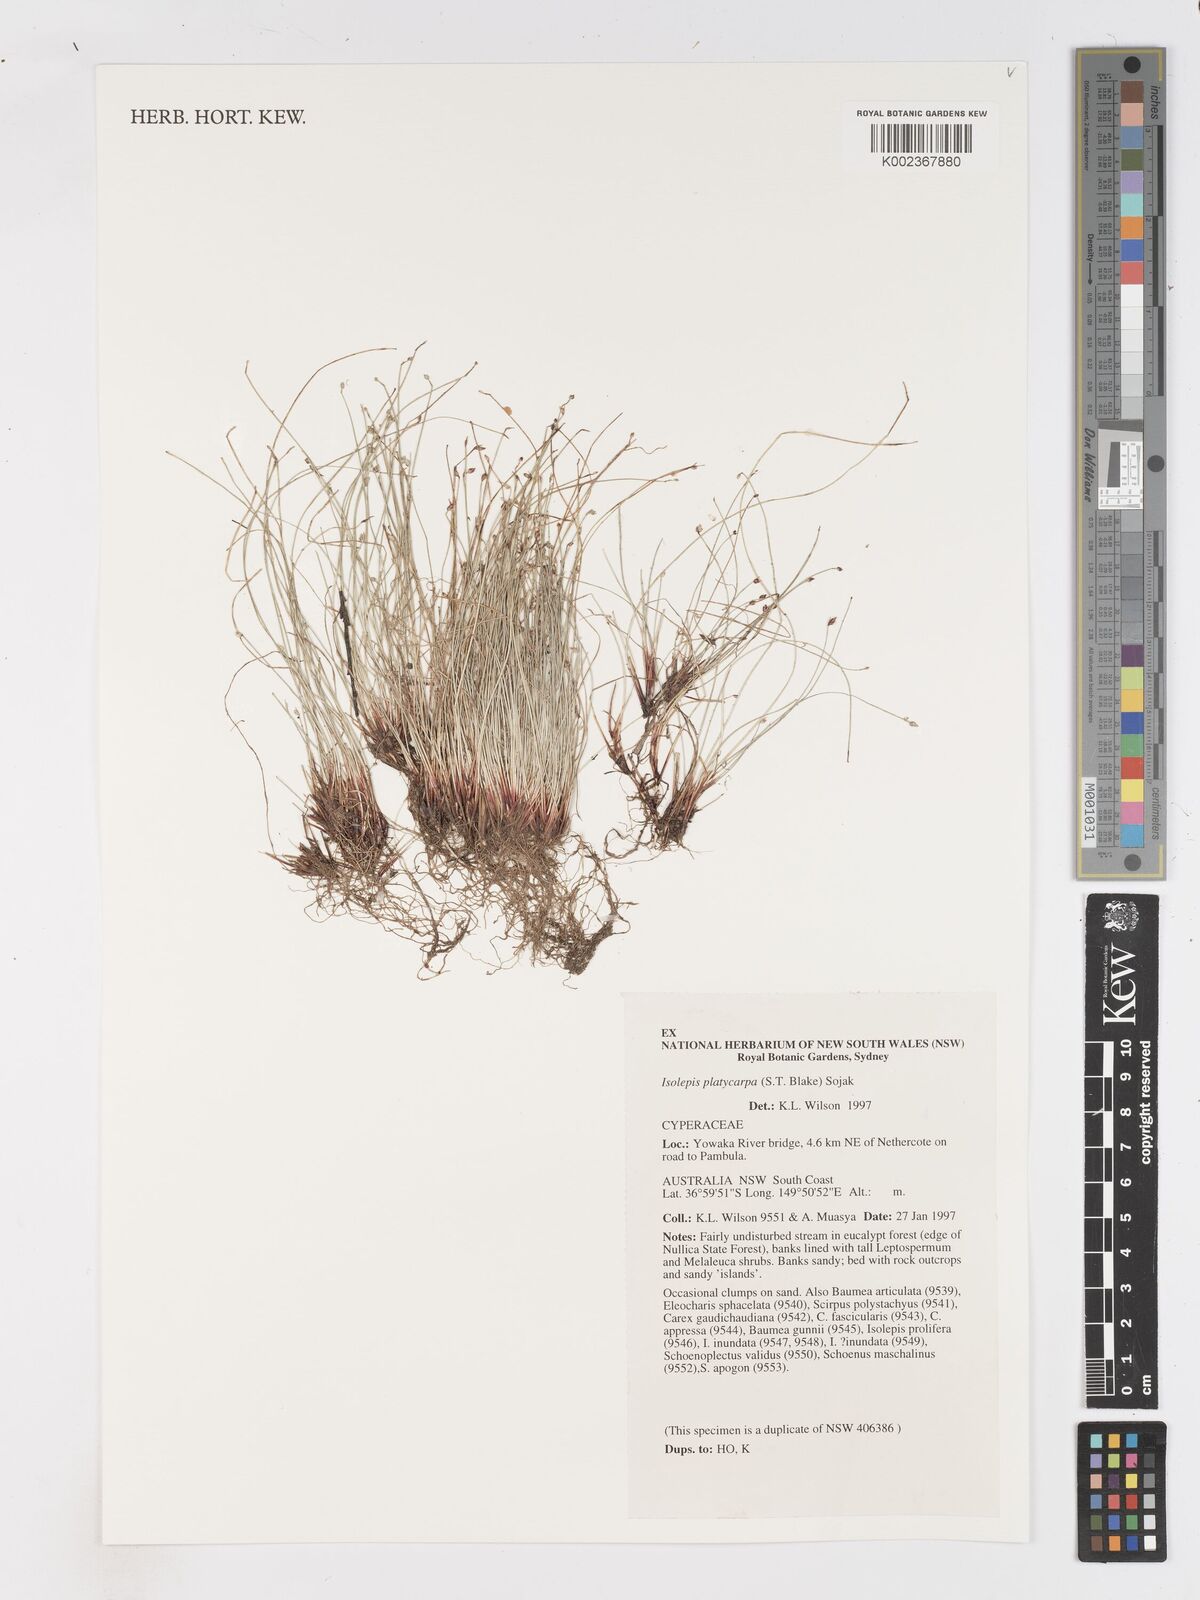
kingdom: Plantae
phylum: Tracheophyta
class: Liliopsida
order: Poales
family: Cyperaceae
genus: Isolepis
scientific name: Isolepis cernua
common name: Slender club-rush
